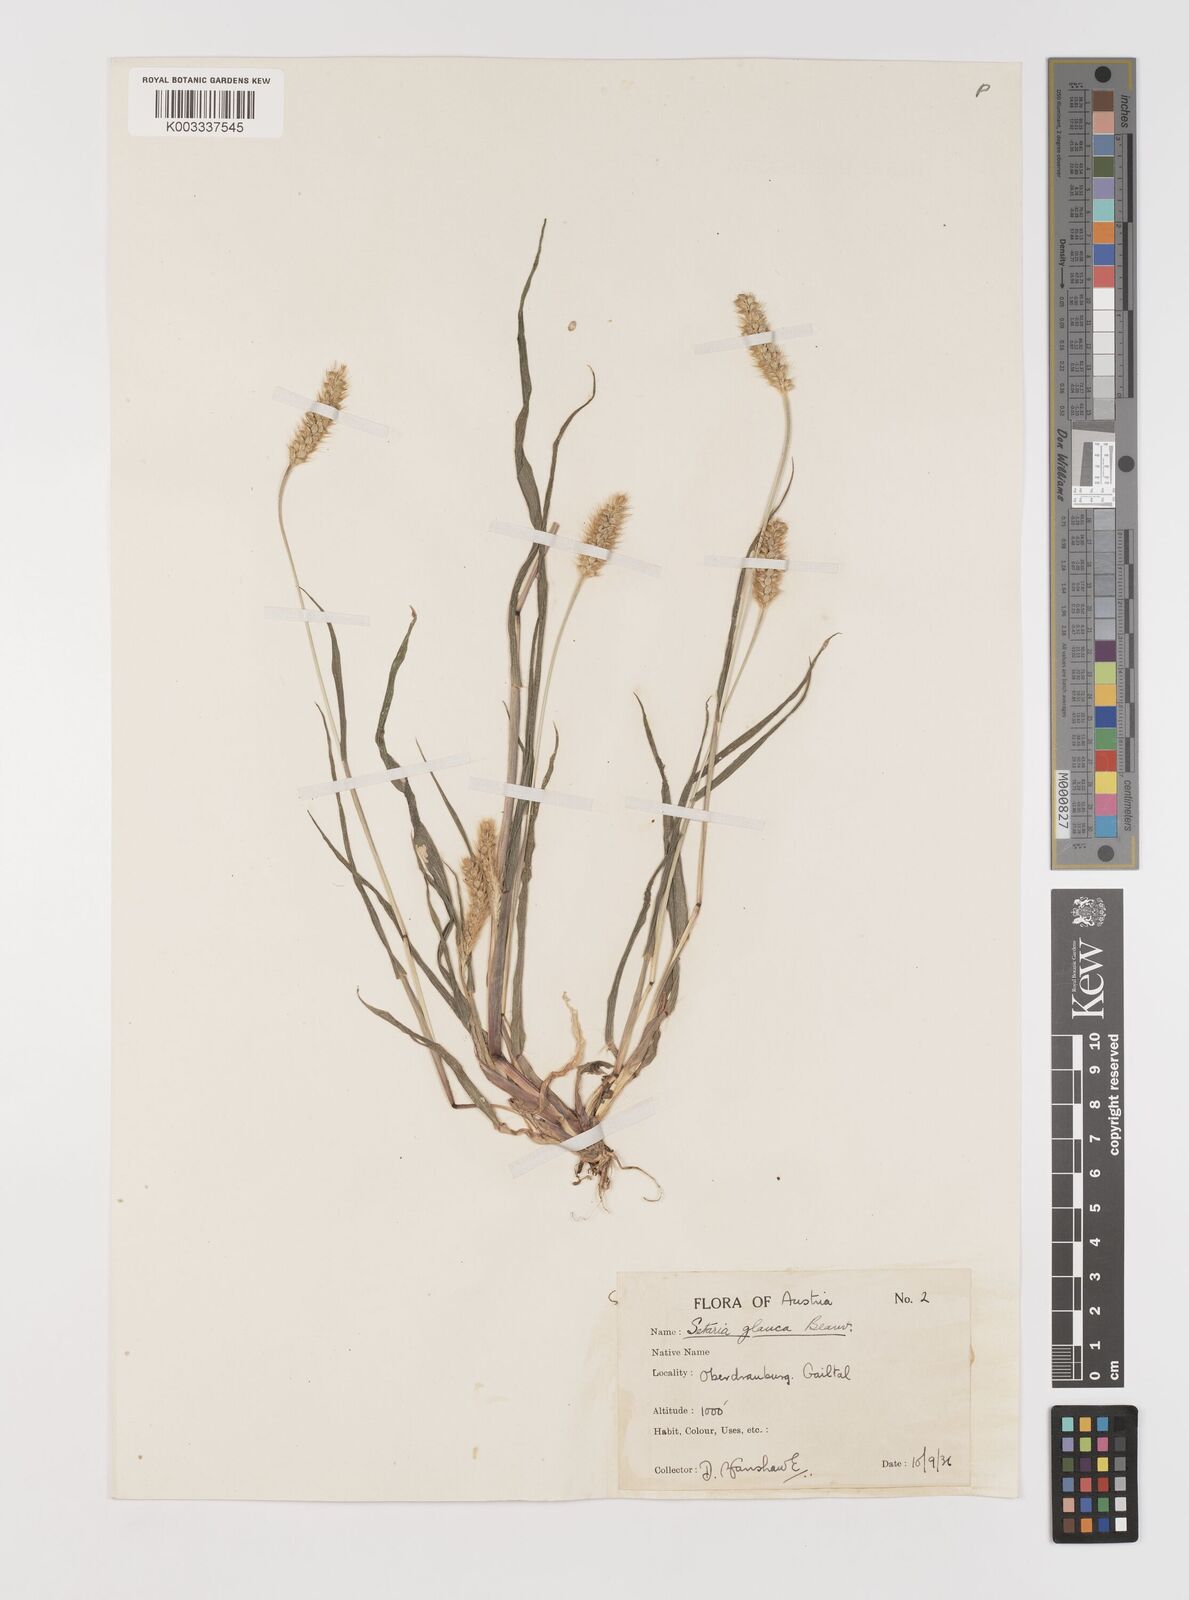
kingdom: Plantae
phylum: Tracheophyta
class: Liliopsida
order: Poales
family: Poaceae
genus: Setaria
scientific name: Setaria pumila
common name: Yellow bristle-grass
